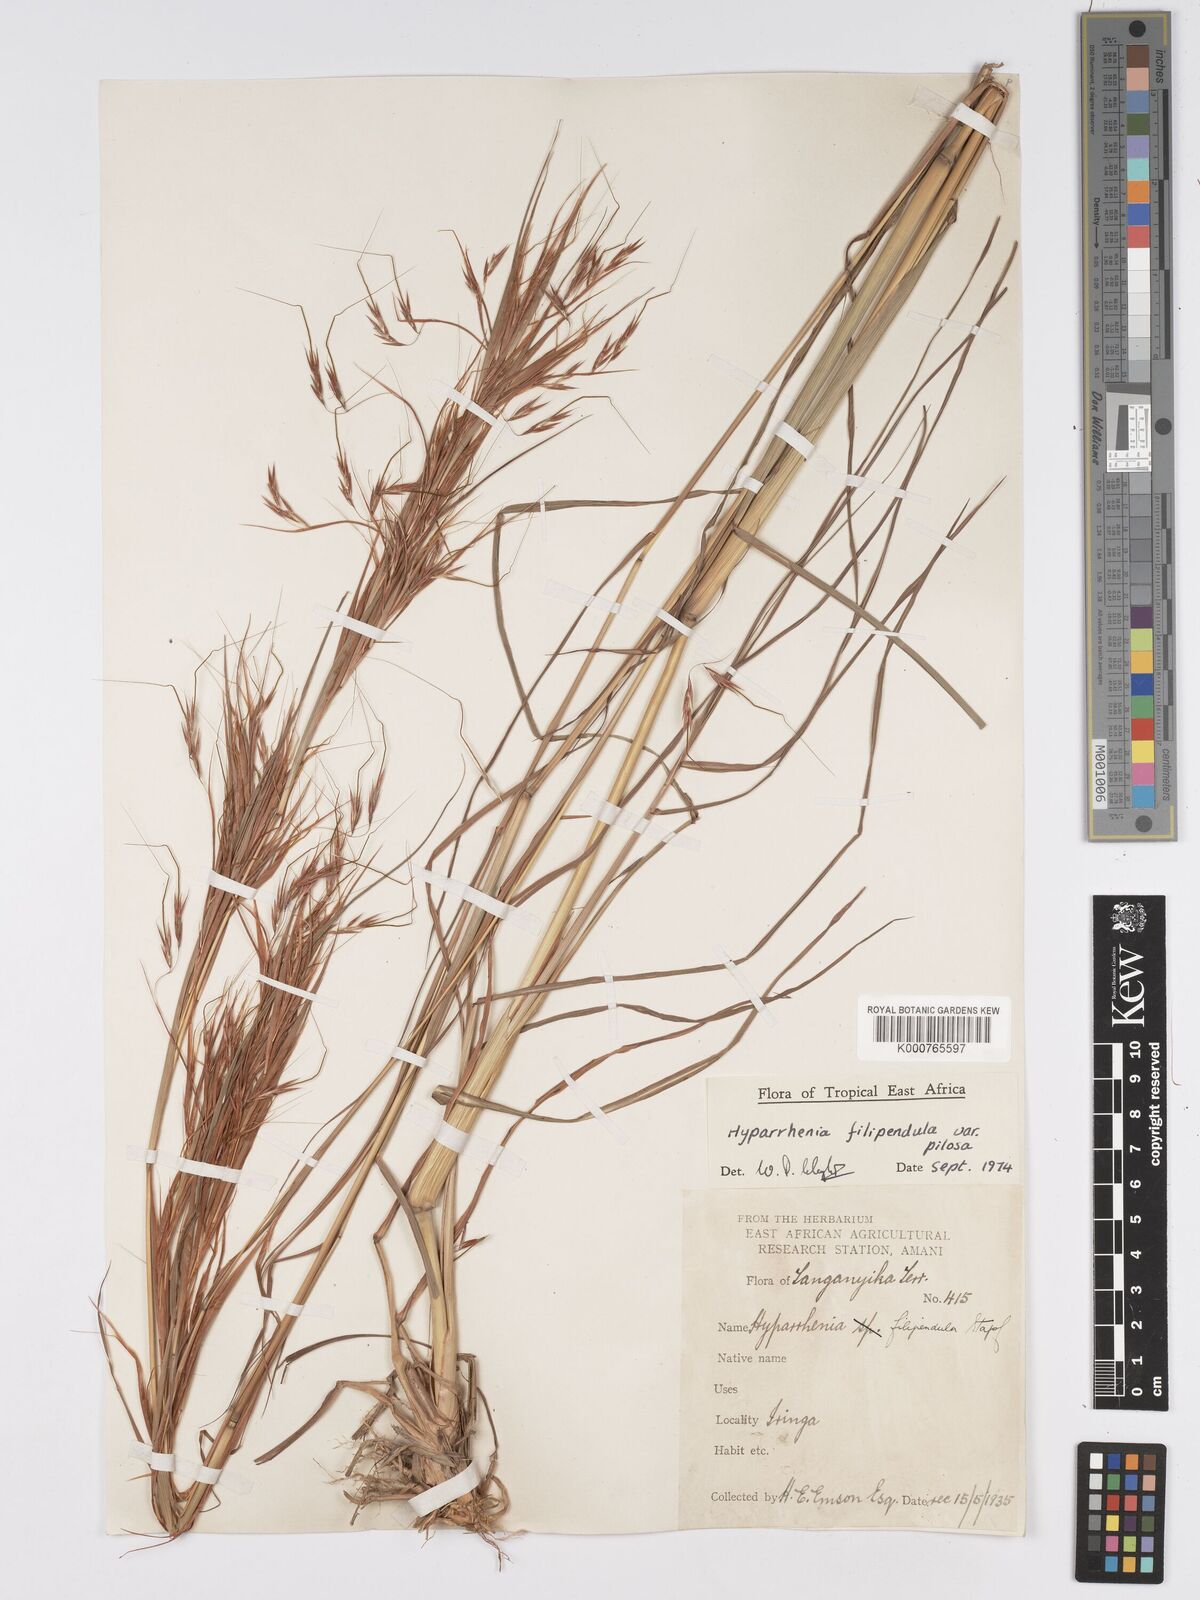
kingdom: Plantae
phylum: Tracheophyta
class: Liliopsida
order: Poales
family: Poaceae
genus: Hyparrhenia
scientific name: Hyparrhenia filipendula
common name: Tambookie grass
